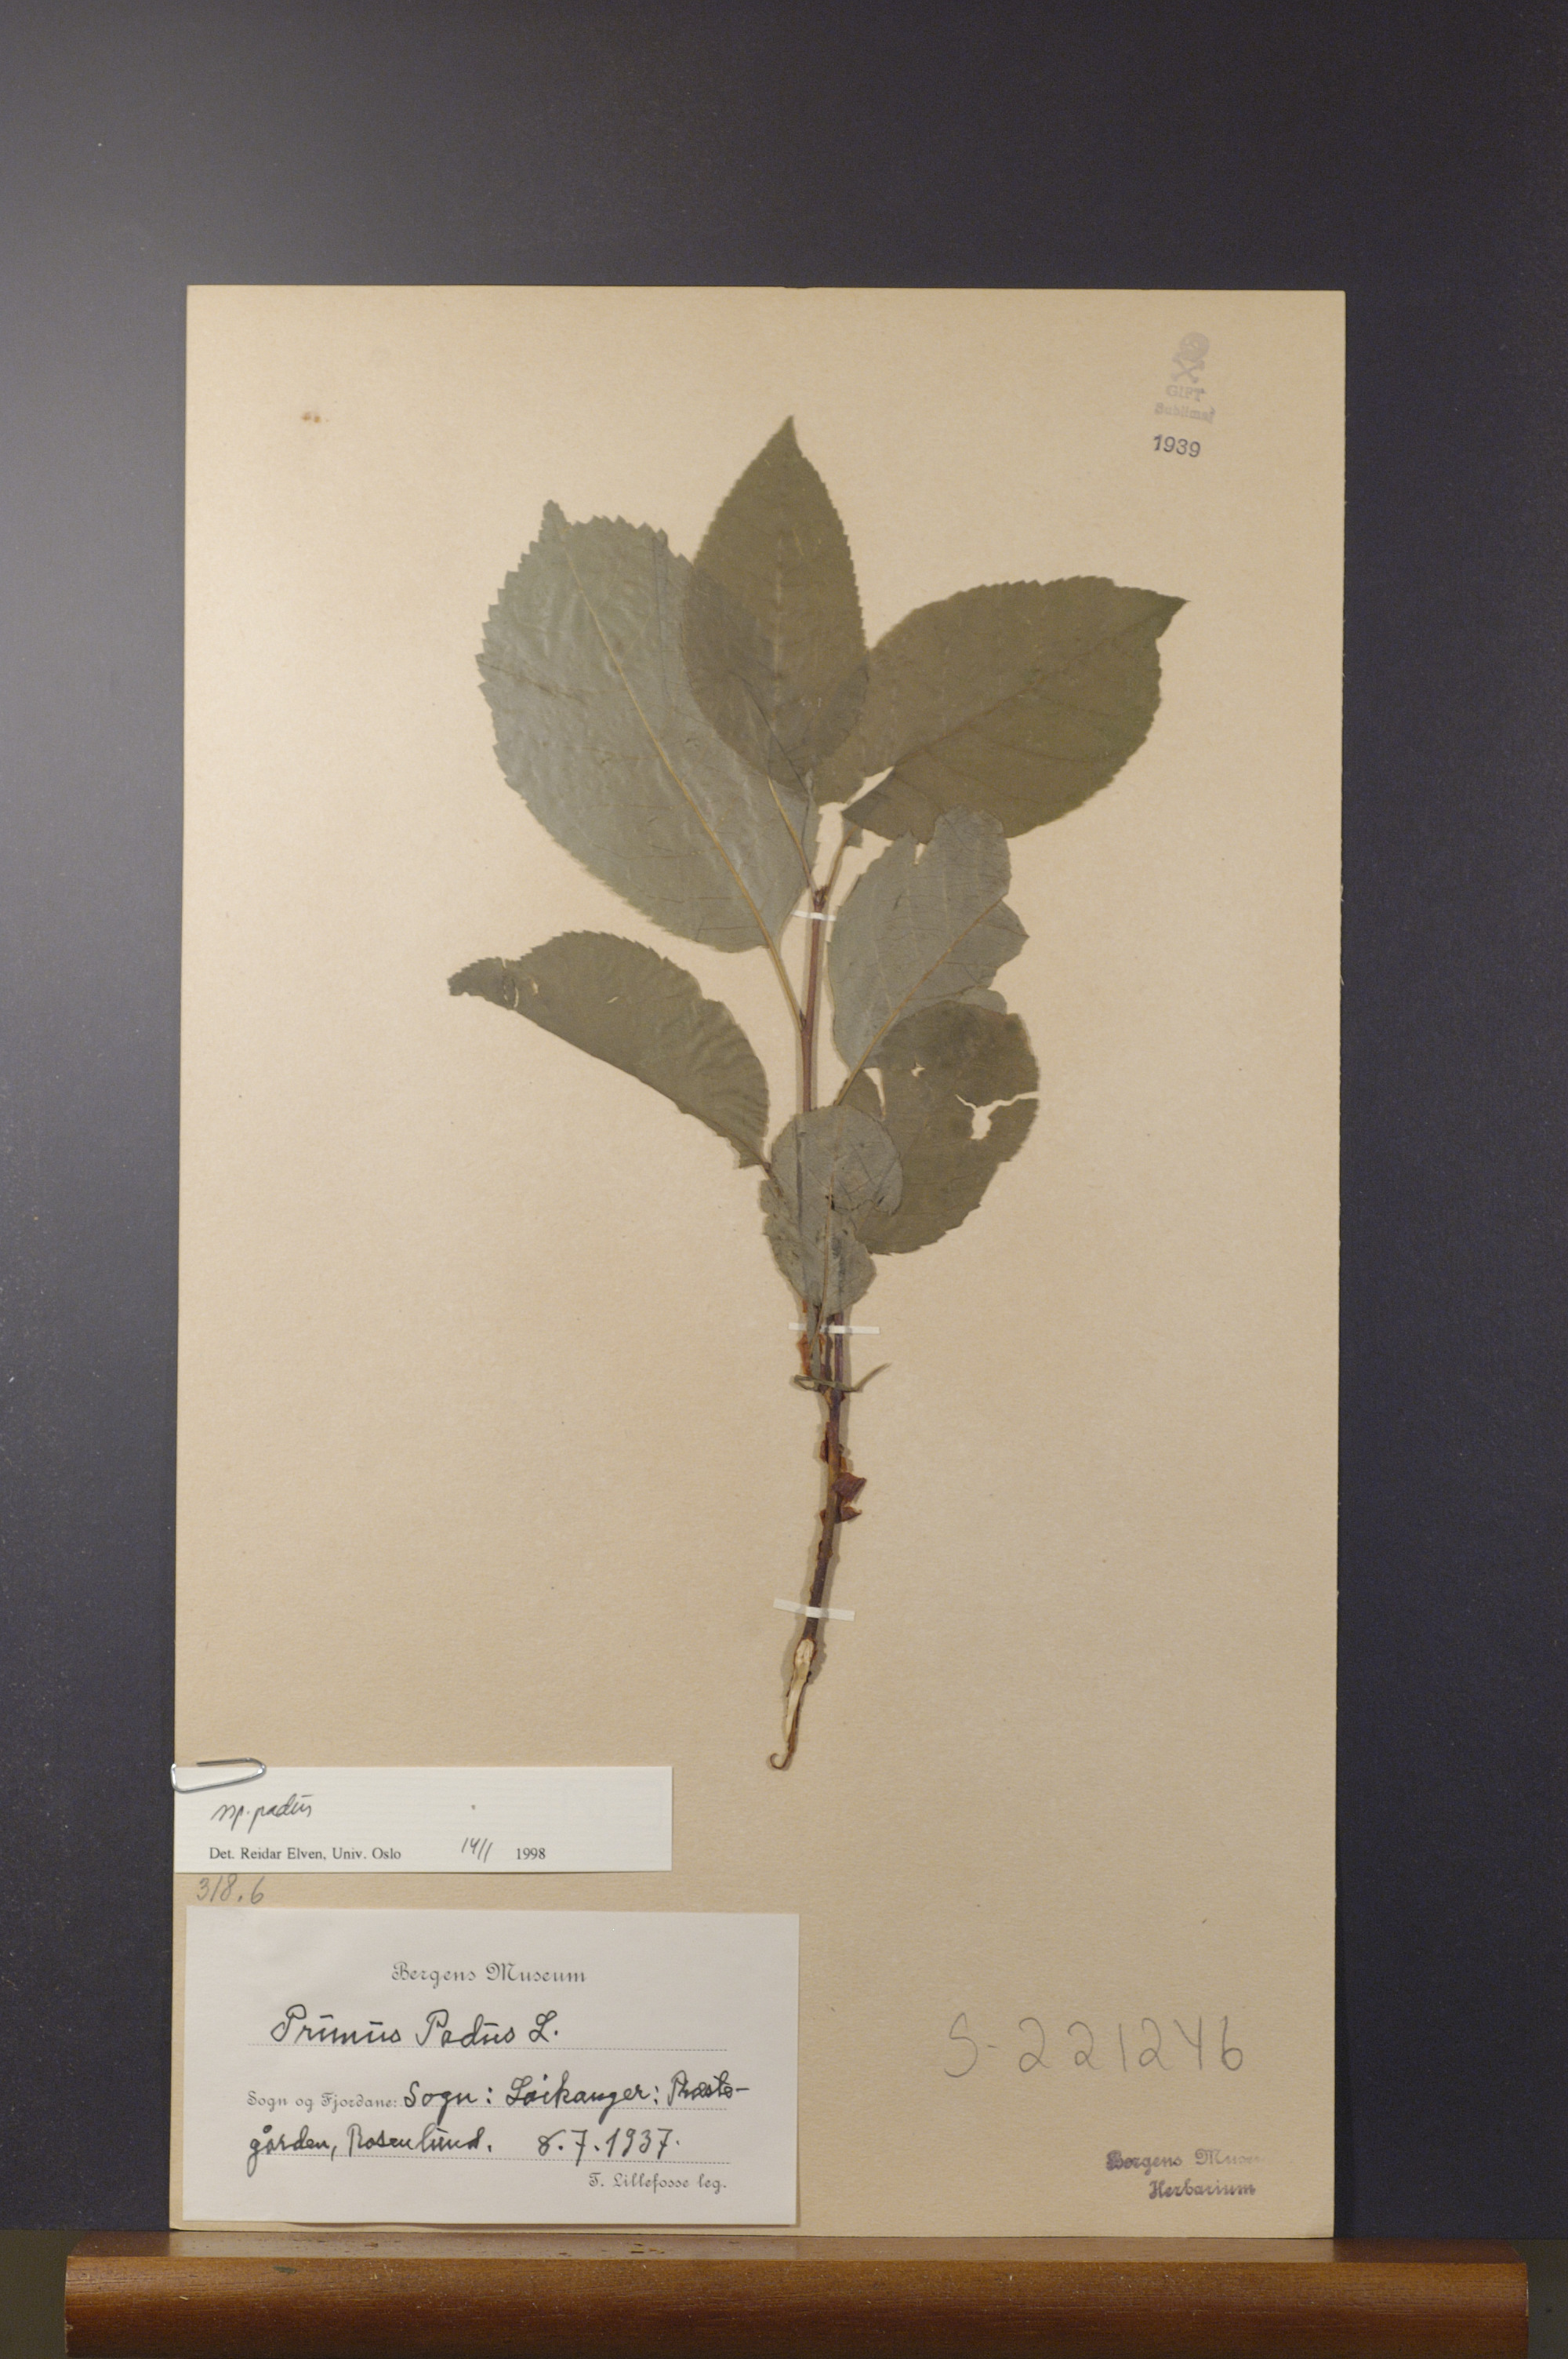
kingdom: Plantae
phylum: Tracheophyta
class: Magnoliopsida
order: Rosales
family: Rosaceae
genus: Prunus
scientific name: Prunus padus
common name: Bird cherry
